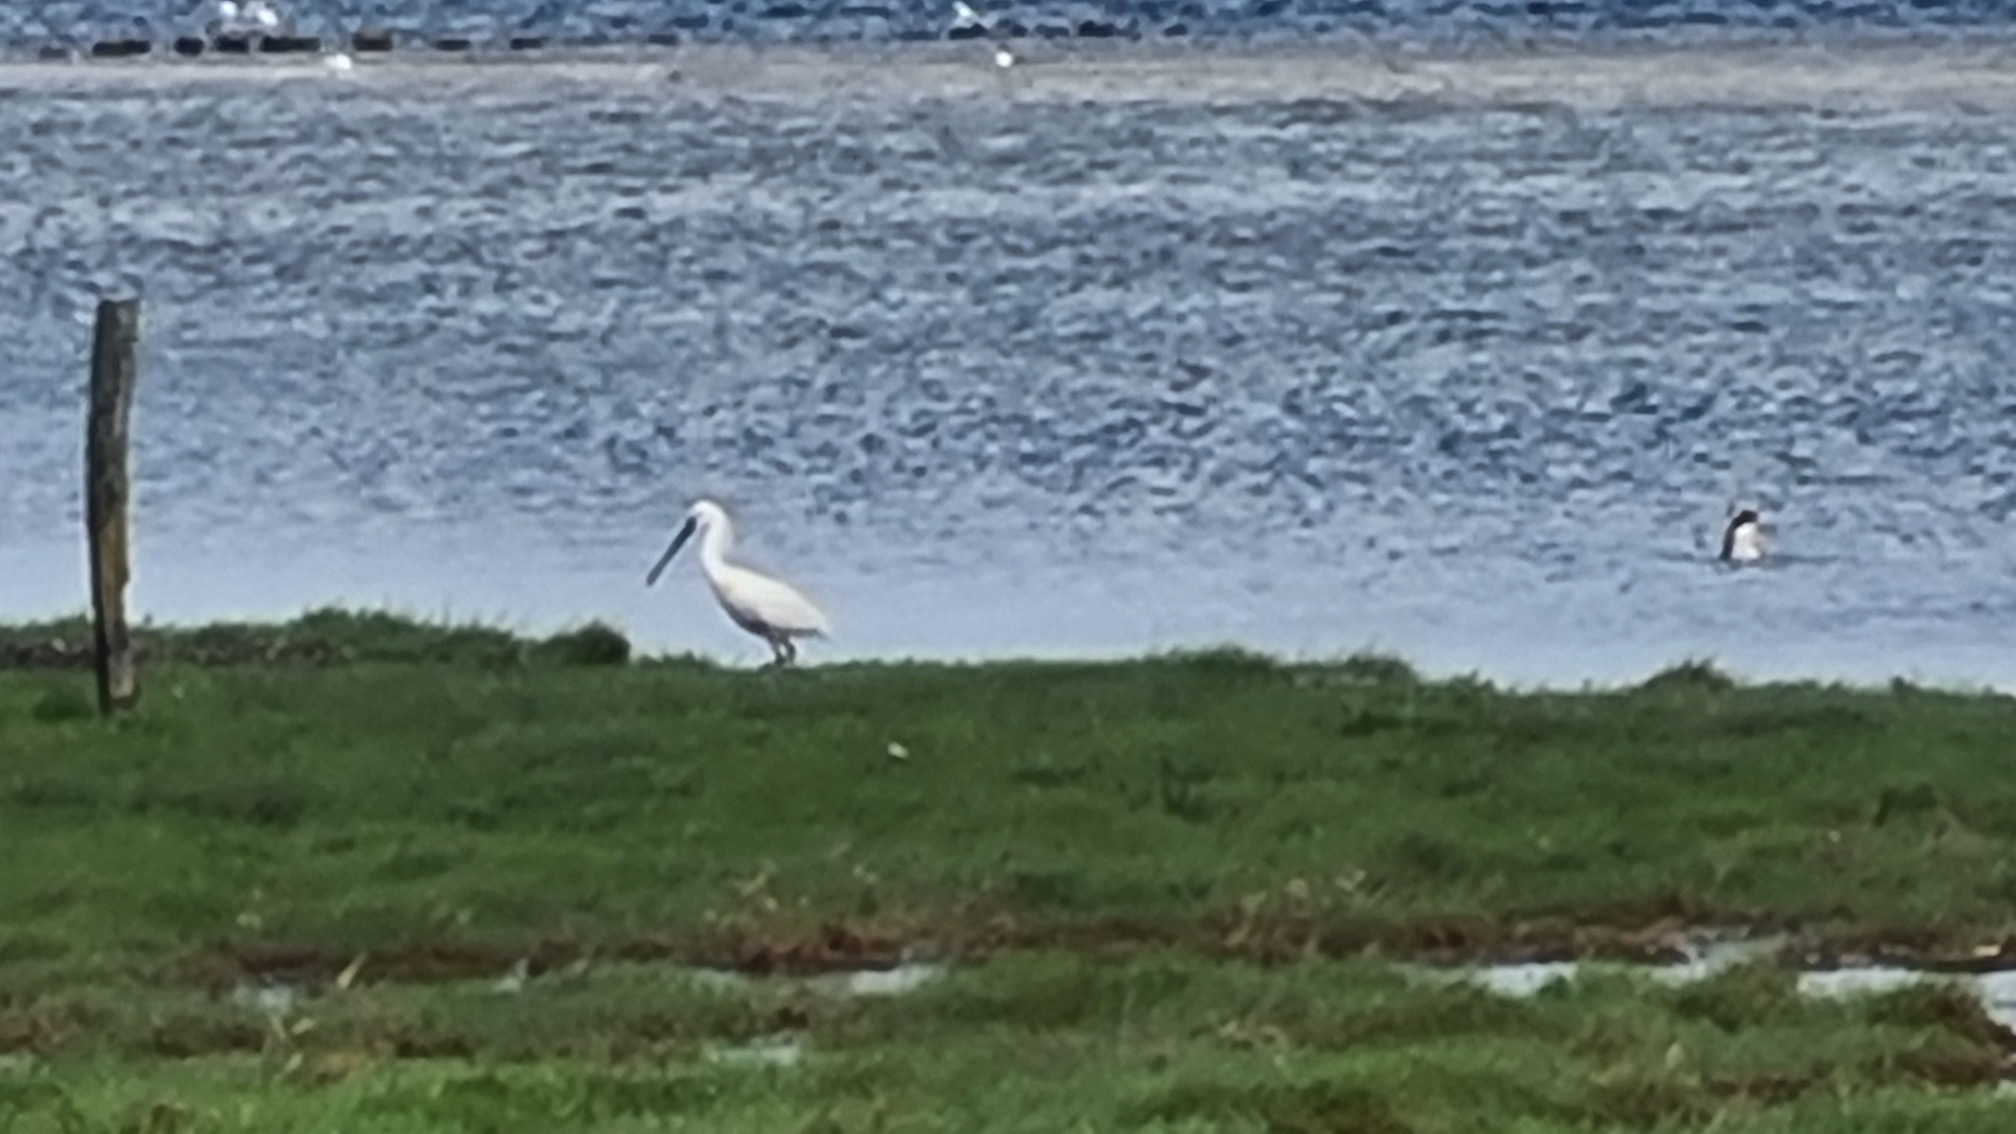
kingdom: Animalia
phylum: Chordata
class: Aves
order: Pelecaniformes
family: Threskiornithidae
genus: Platalea
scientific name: Platalea leucorodia
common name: Skestork
